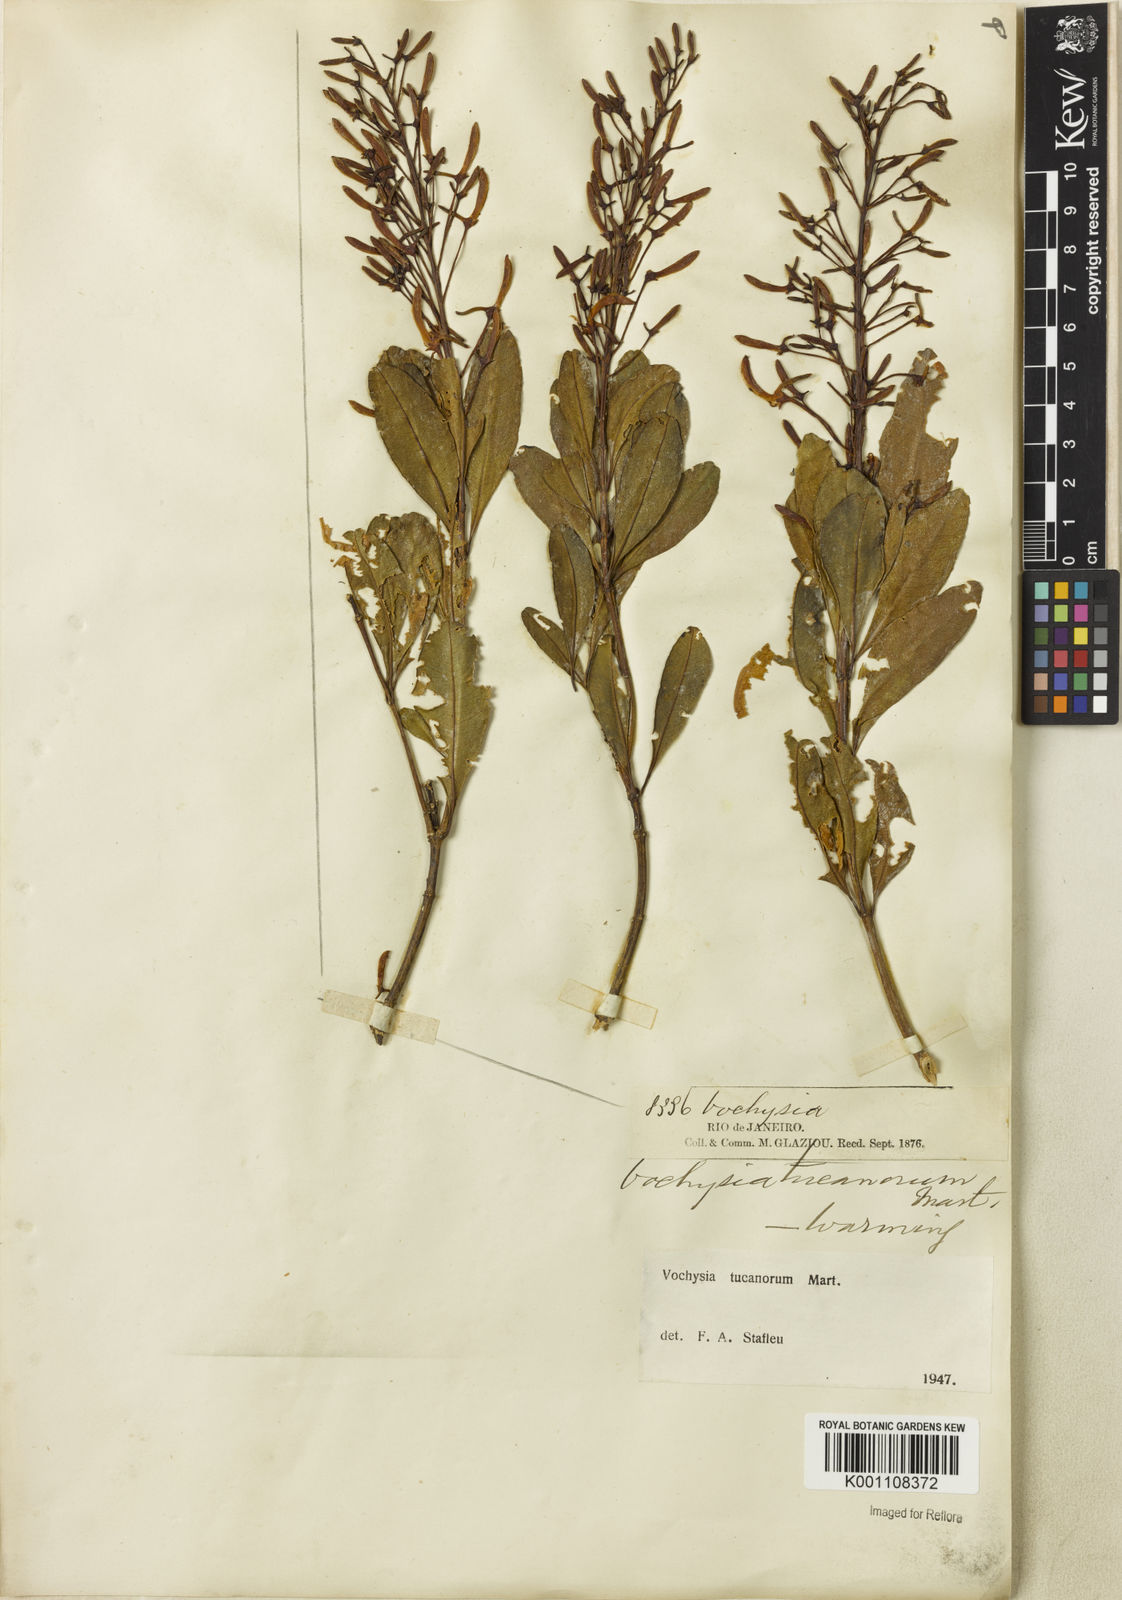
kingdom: Plantae
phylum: Tracheophyta
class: Magnoliopsida
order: Myrtales
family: Vochysiaceae
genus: Vochysia
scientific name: Vochysia tucanorum
